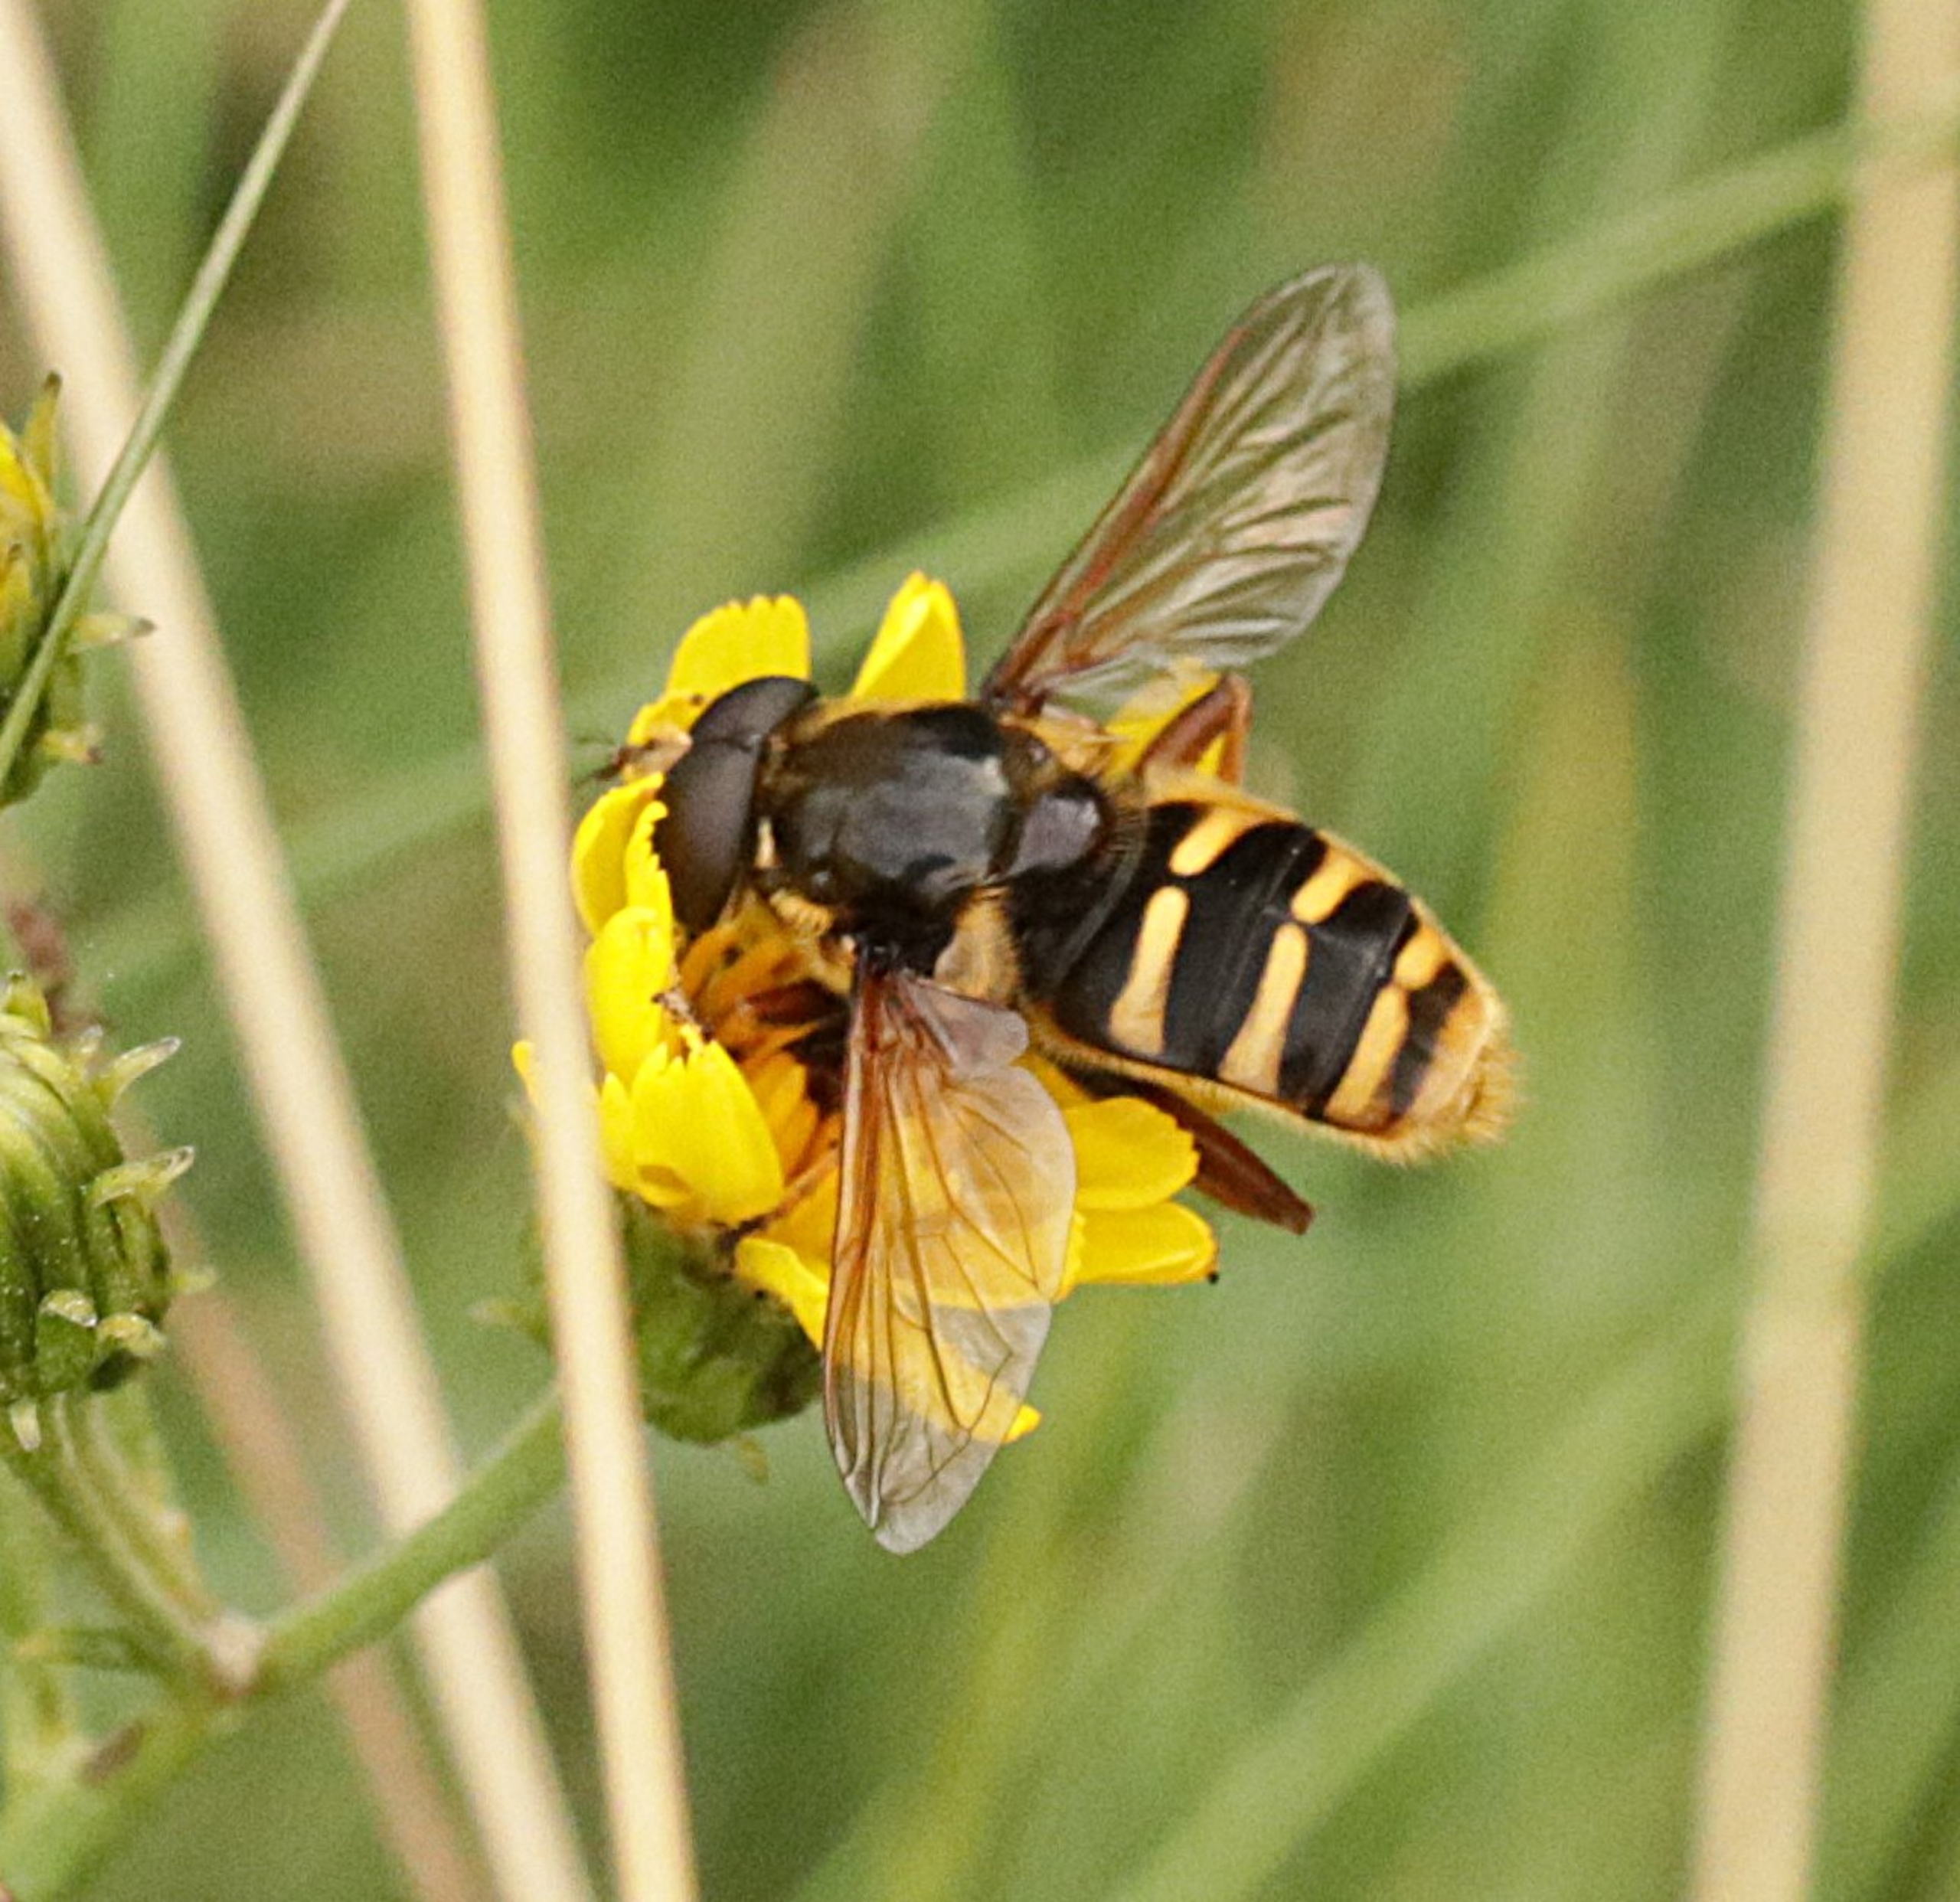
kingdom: Animalia
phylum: Arthropoda
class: Insecta
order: Diptera
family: Syrphidae
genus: Sericomyia
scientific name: Sericomyia silentis
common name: Tørve-silkesvirreflue
